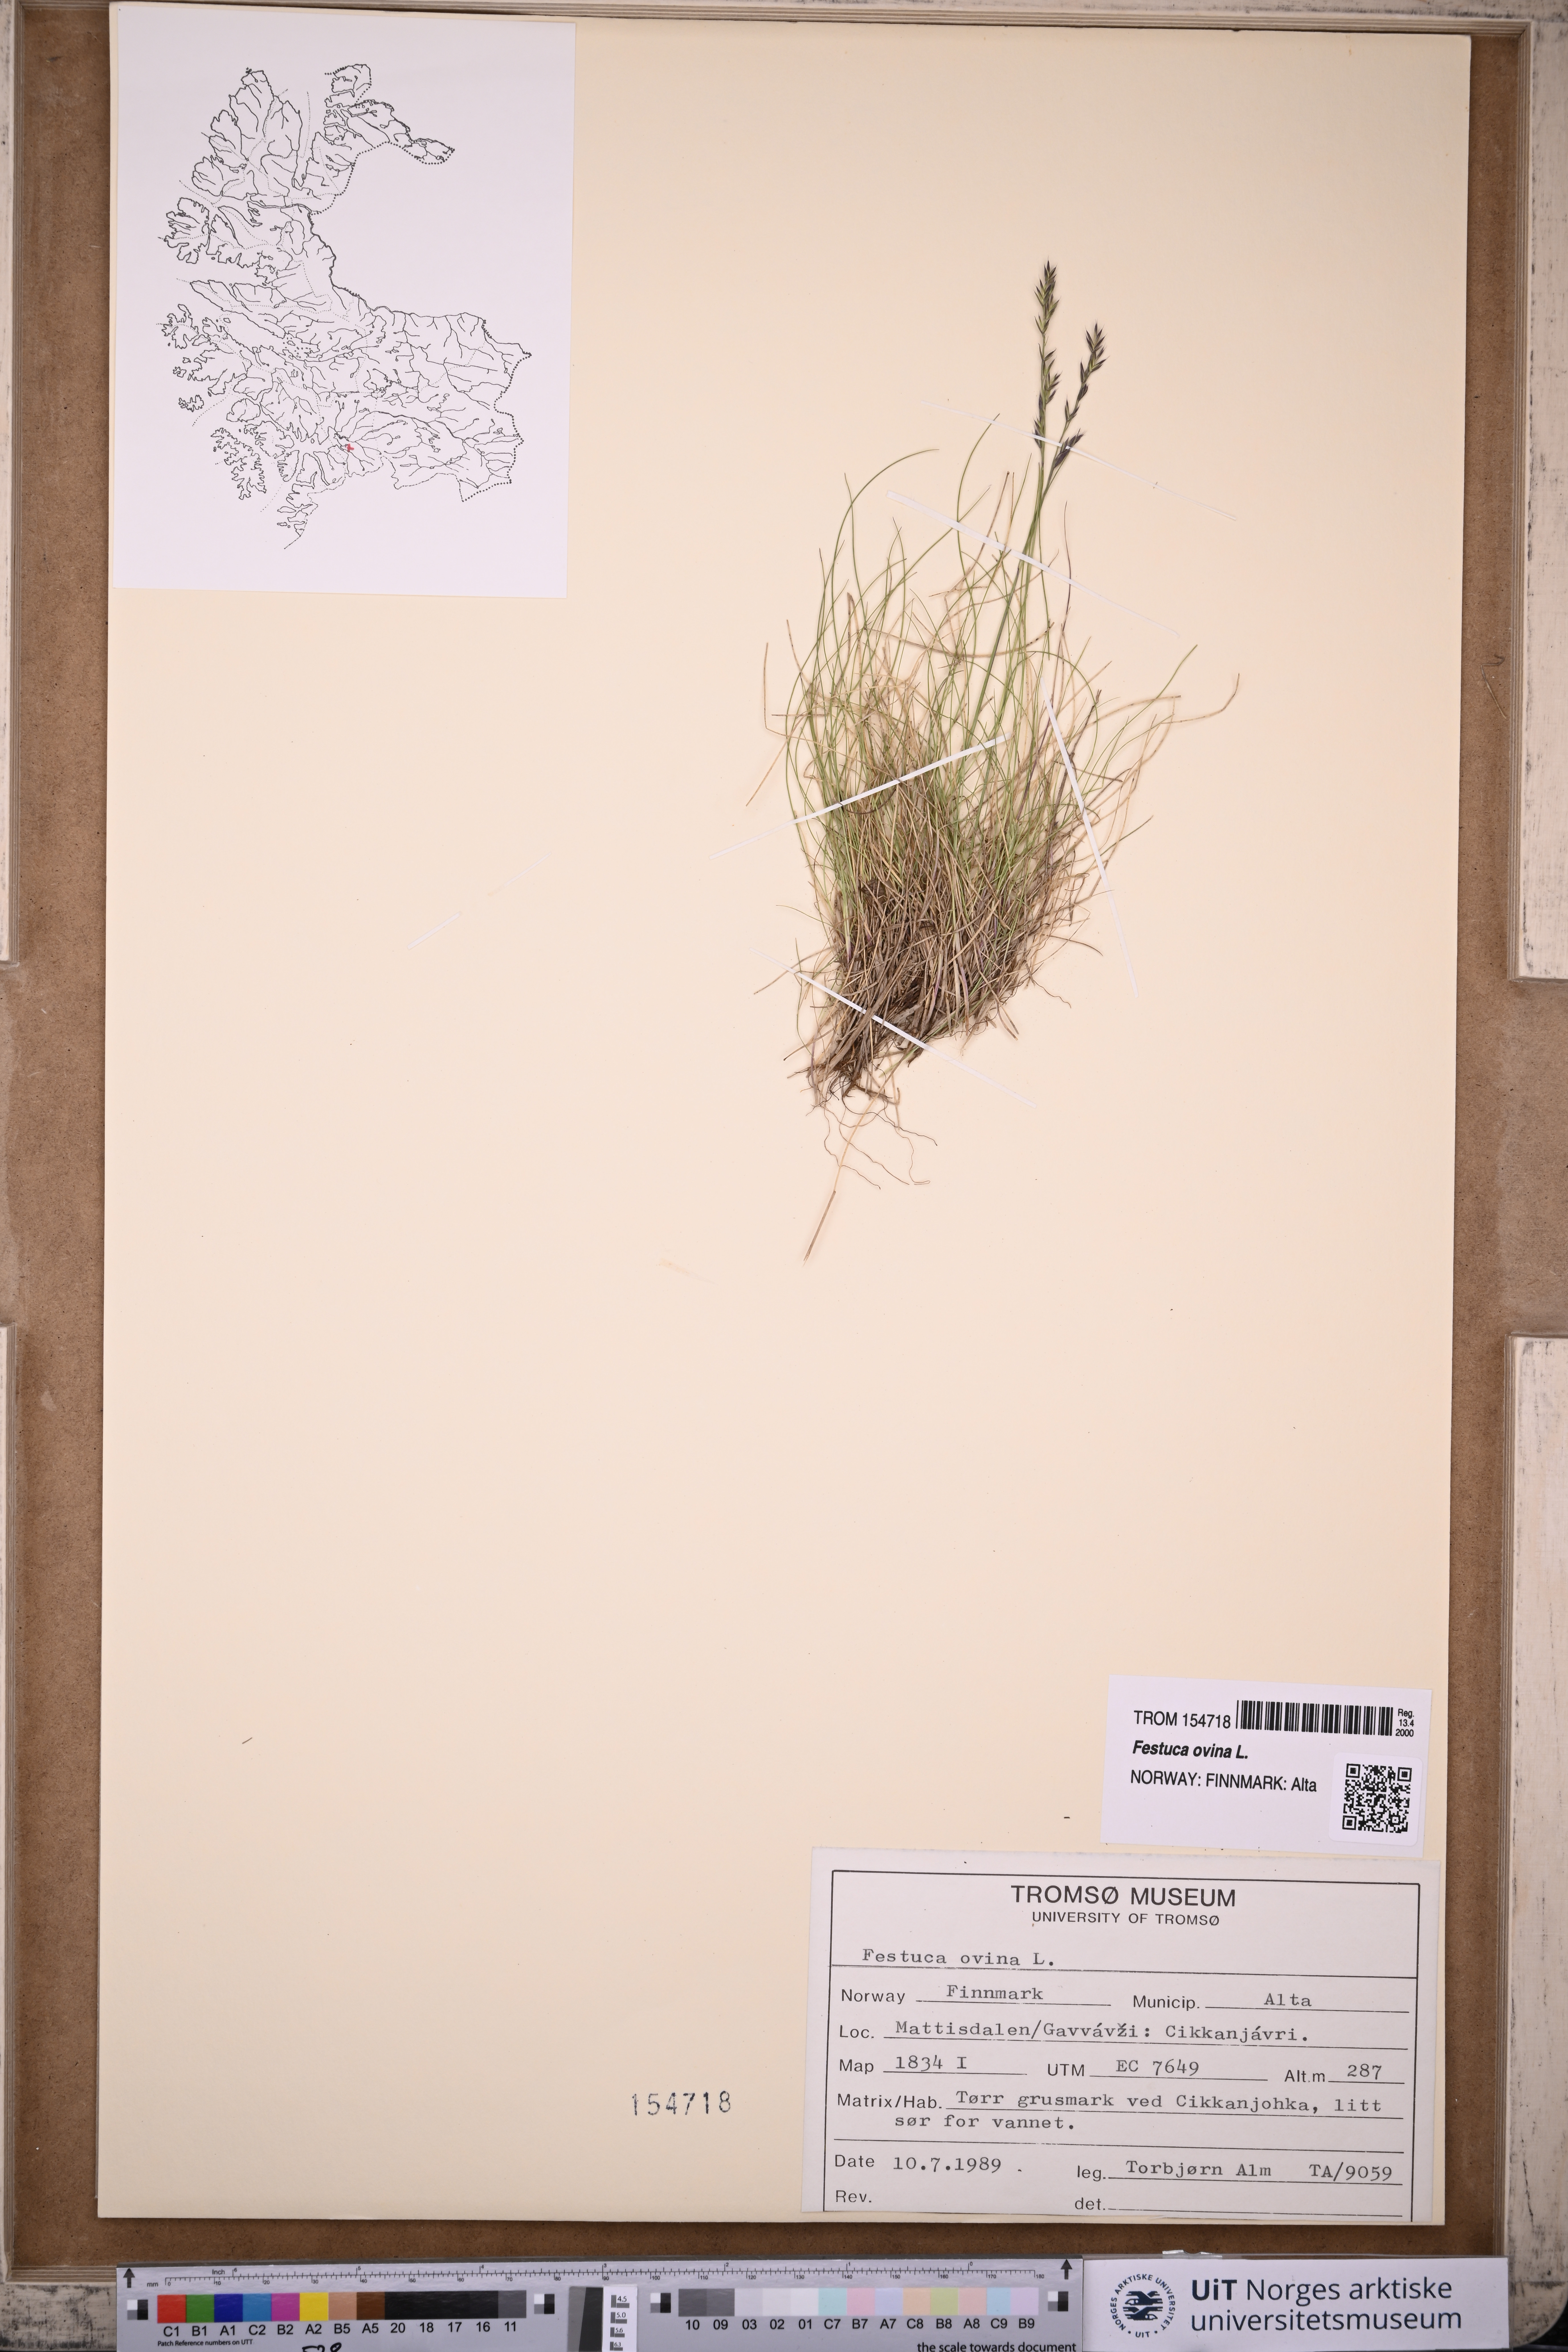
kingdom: Plantae
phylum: Tracheophyta
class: Liliopsida
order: Poales
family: Poaceae
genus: Festuca
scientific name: Festuca ovina
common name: Sheep fescue
